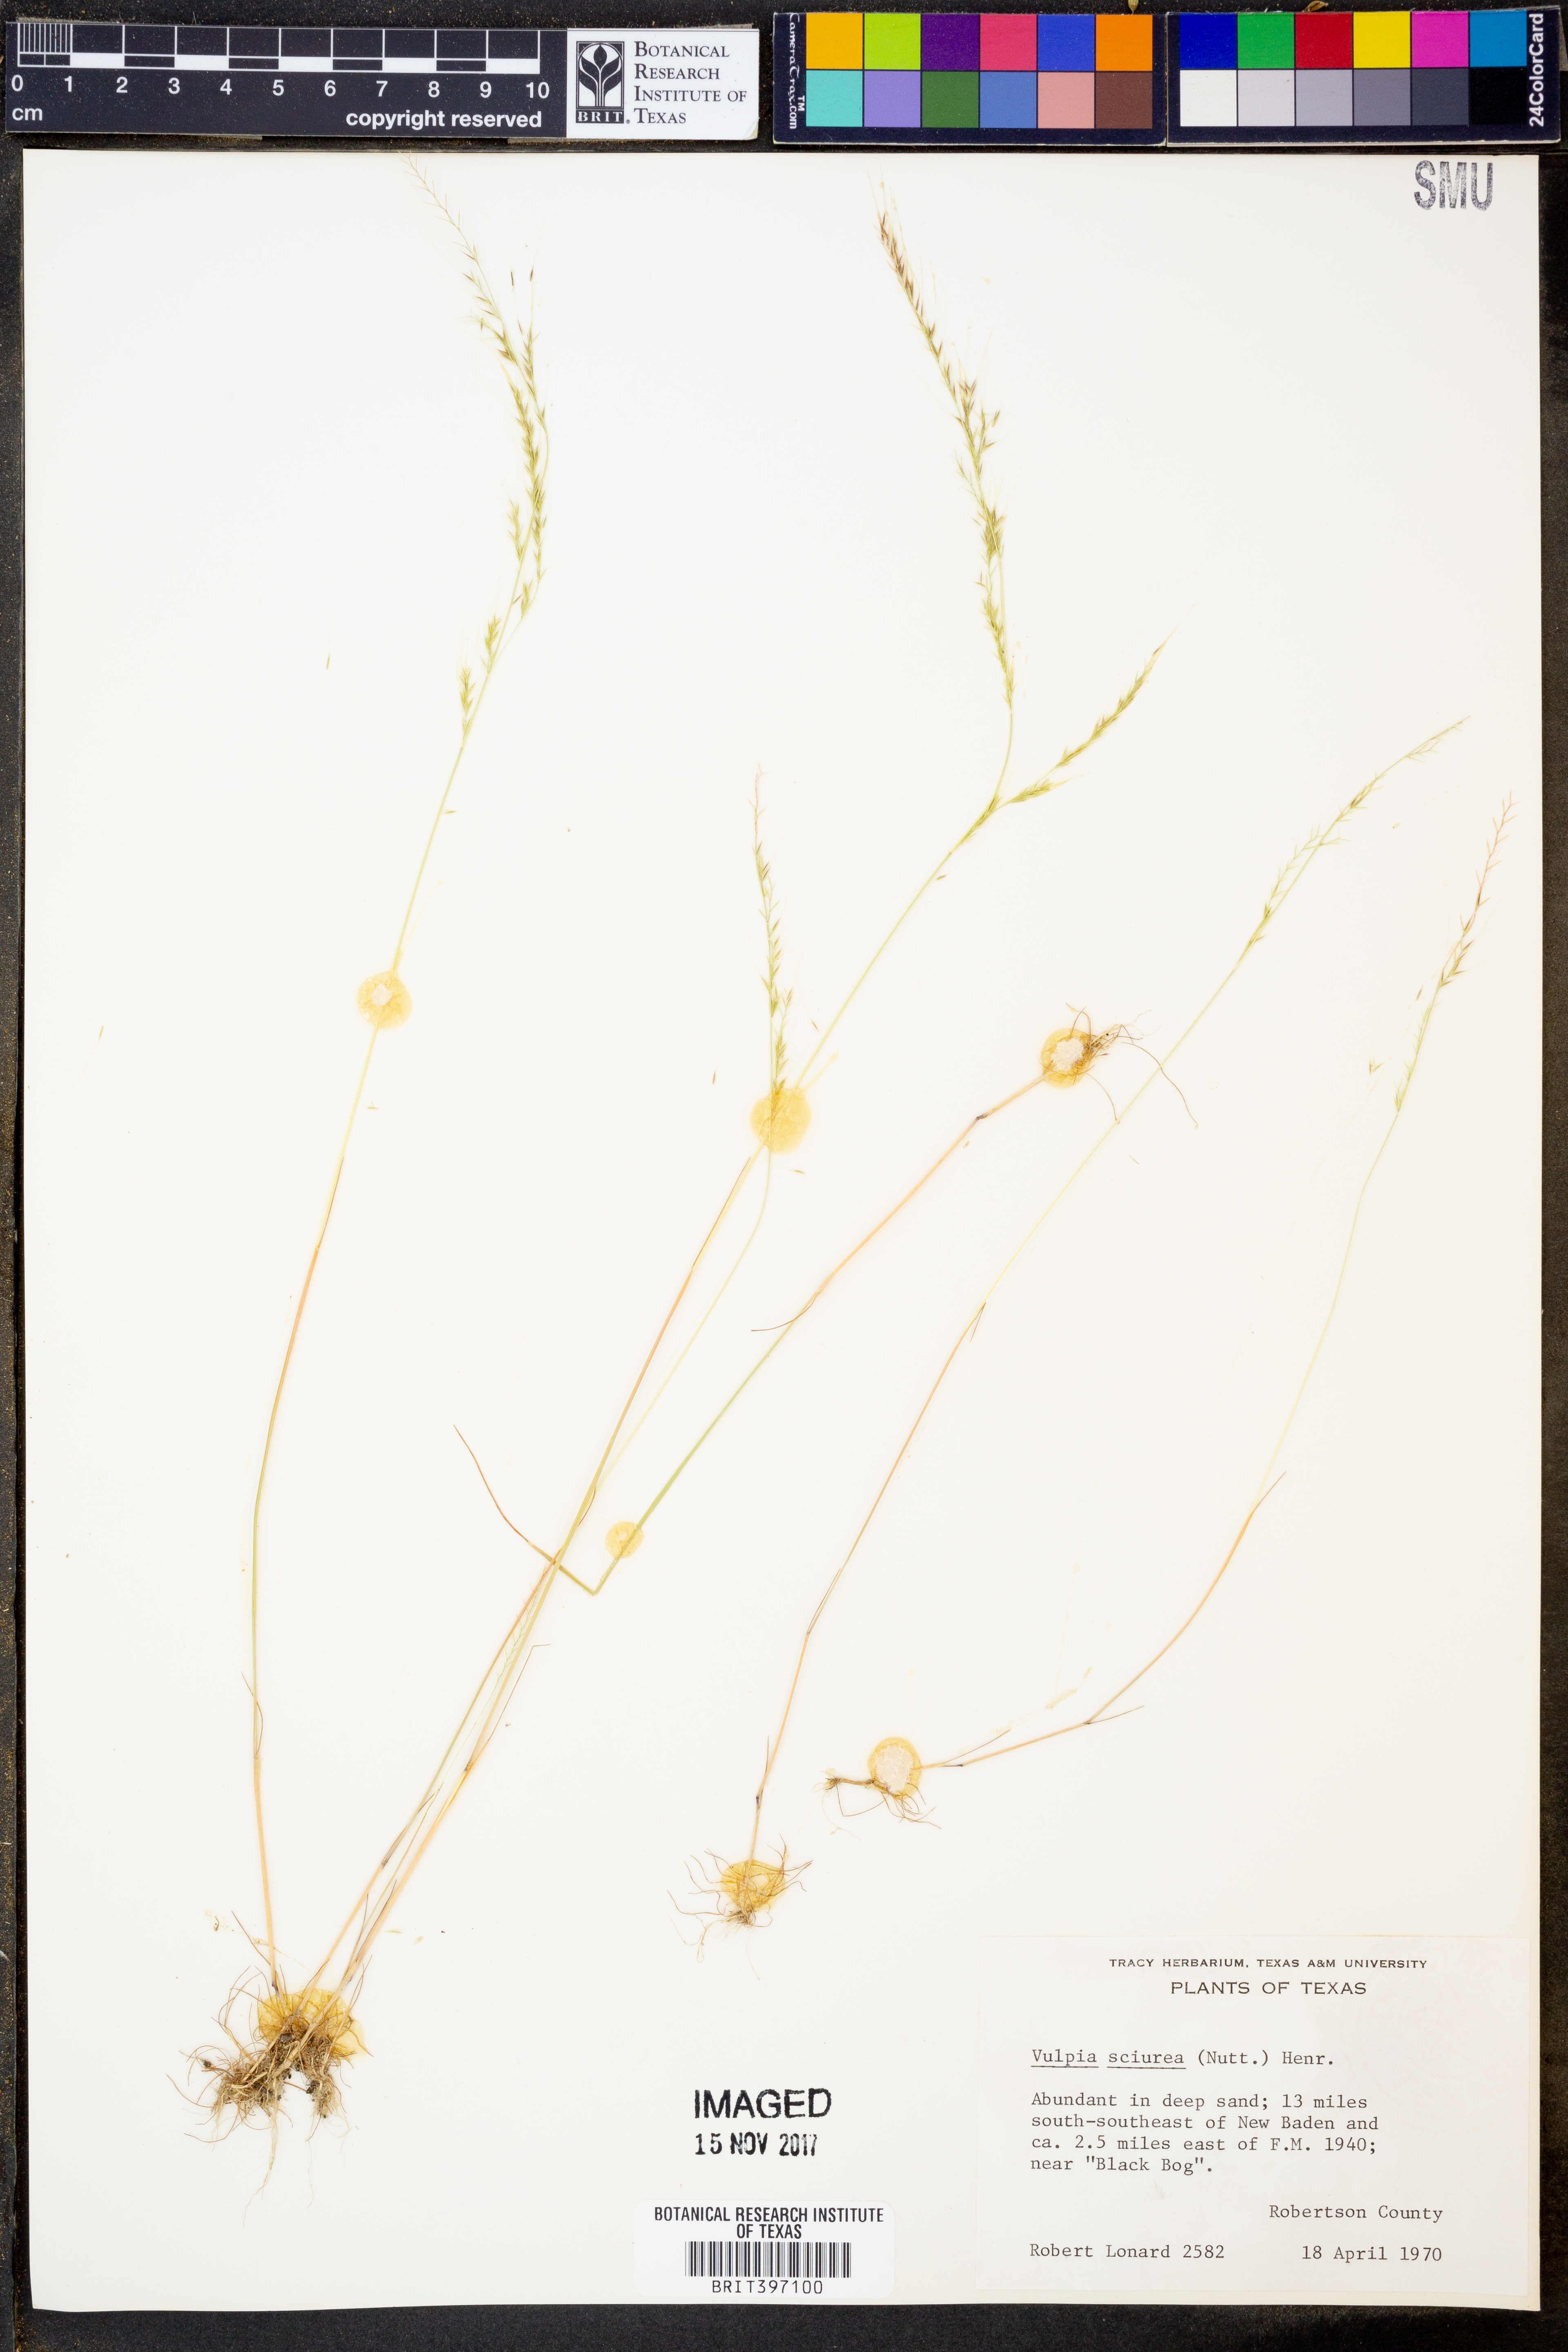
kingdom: Plantae
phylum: Tracheophyta
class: Liliopsida
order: Poales
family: Poaceae
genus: Festuca
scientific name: Festuca sciurea
